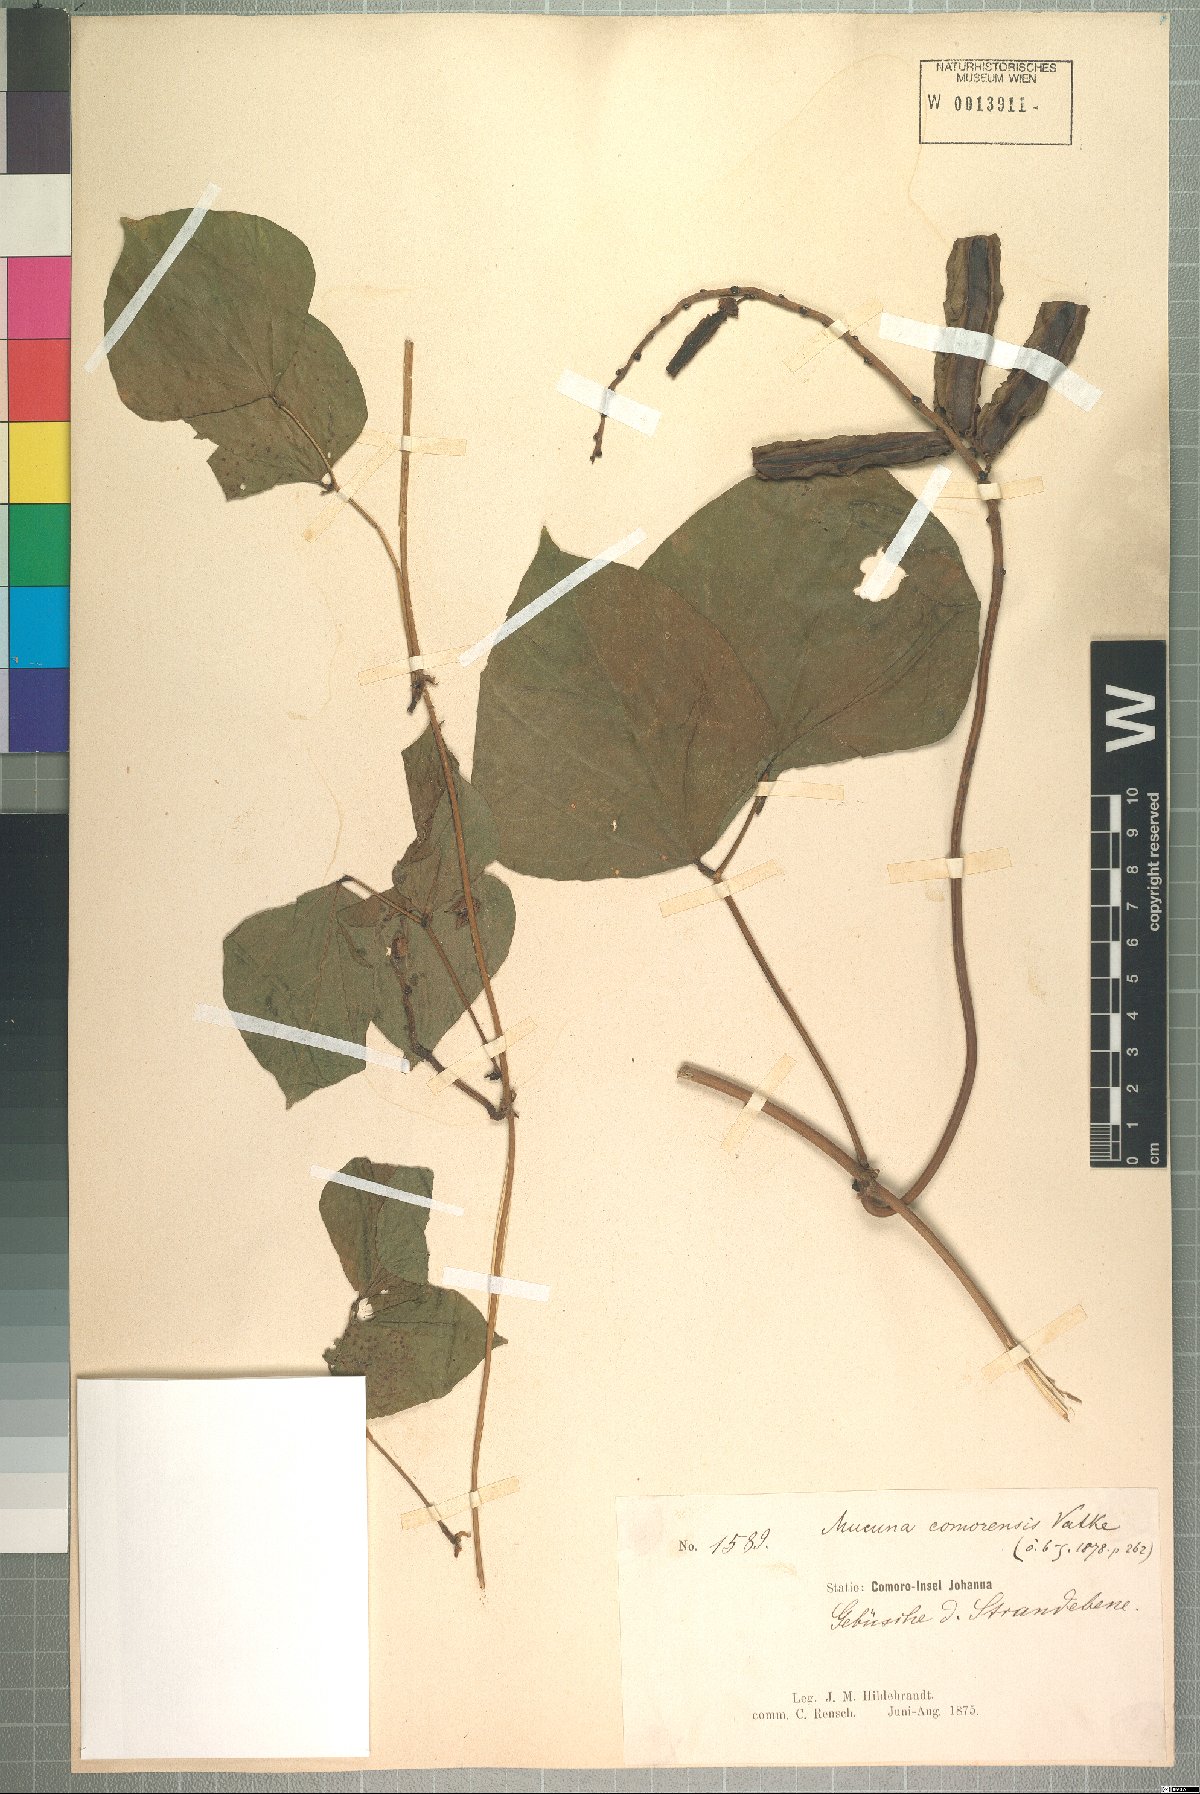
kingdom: Plantae
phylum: Tracheophyta
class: Magnoliopsida
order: Fabales
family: Fabaceae
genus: Psophocarpus
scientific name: Psophocarpus scandens
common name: Tropical african winged-bean
